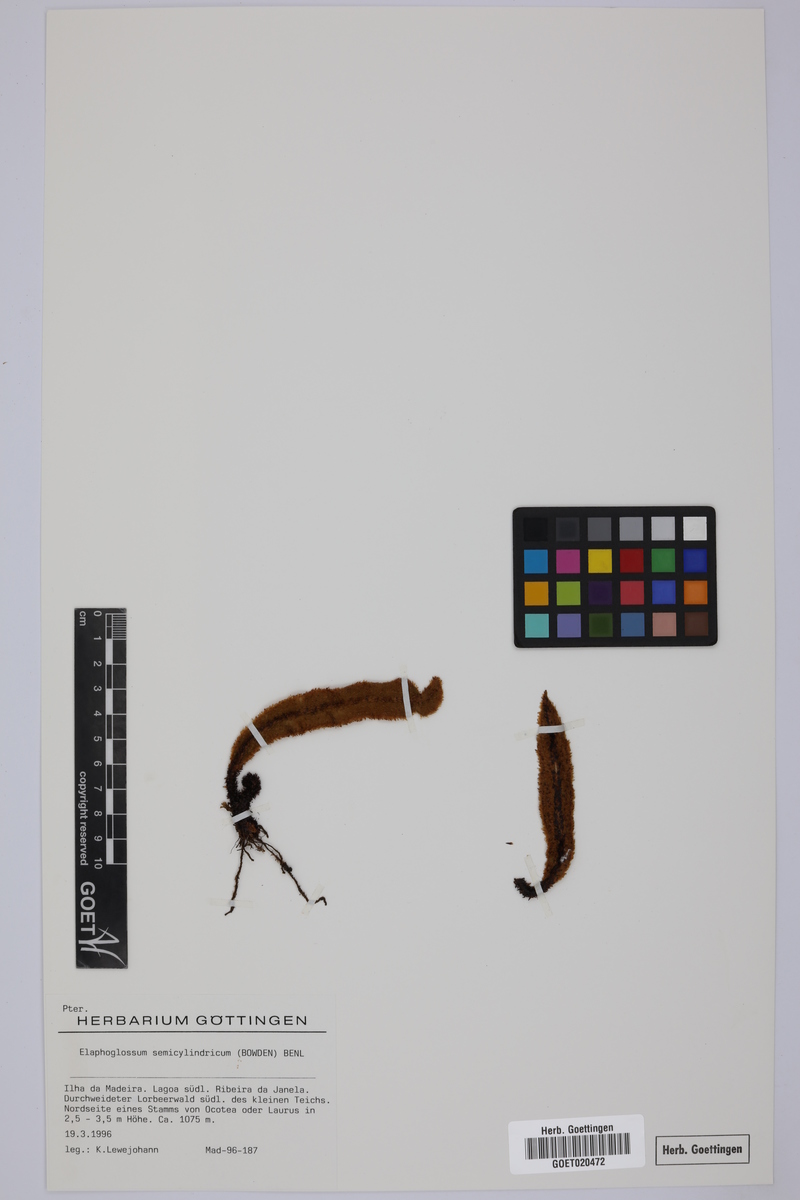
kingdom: Plantae
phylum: Tracheophyta
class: Polypodiopsida
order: Polypodiales
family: Dryopteridaceae
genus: Elaphoglossum
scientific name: Elaphoglossum semicylindricum
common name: Scaly tongue-fern
